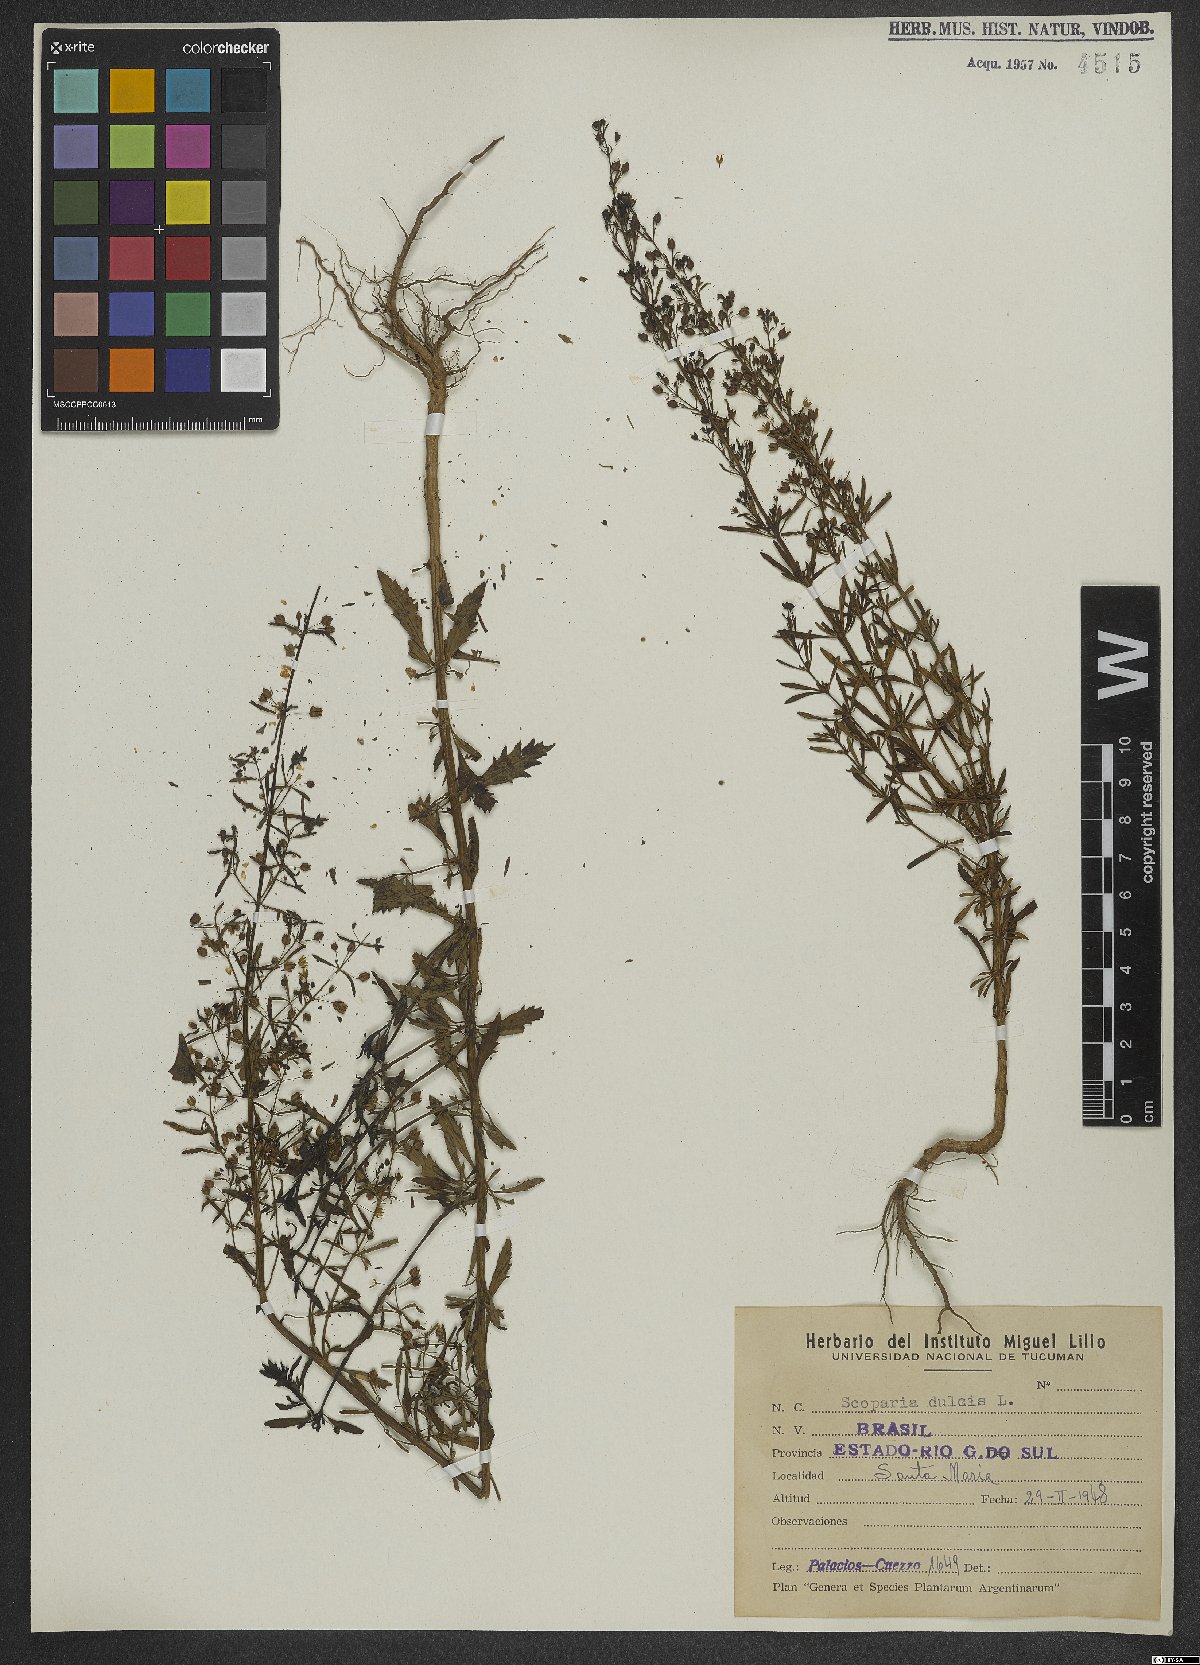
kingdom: Plantae
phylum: Tracheophyta
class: Magnoliopsida
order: Lamiales
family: Plantaginaceae
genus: Scoparia
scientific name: Scoparia dulcis
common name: Scoparia-weed
